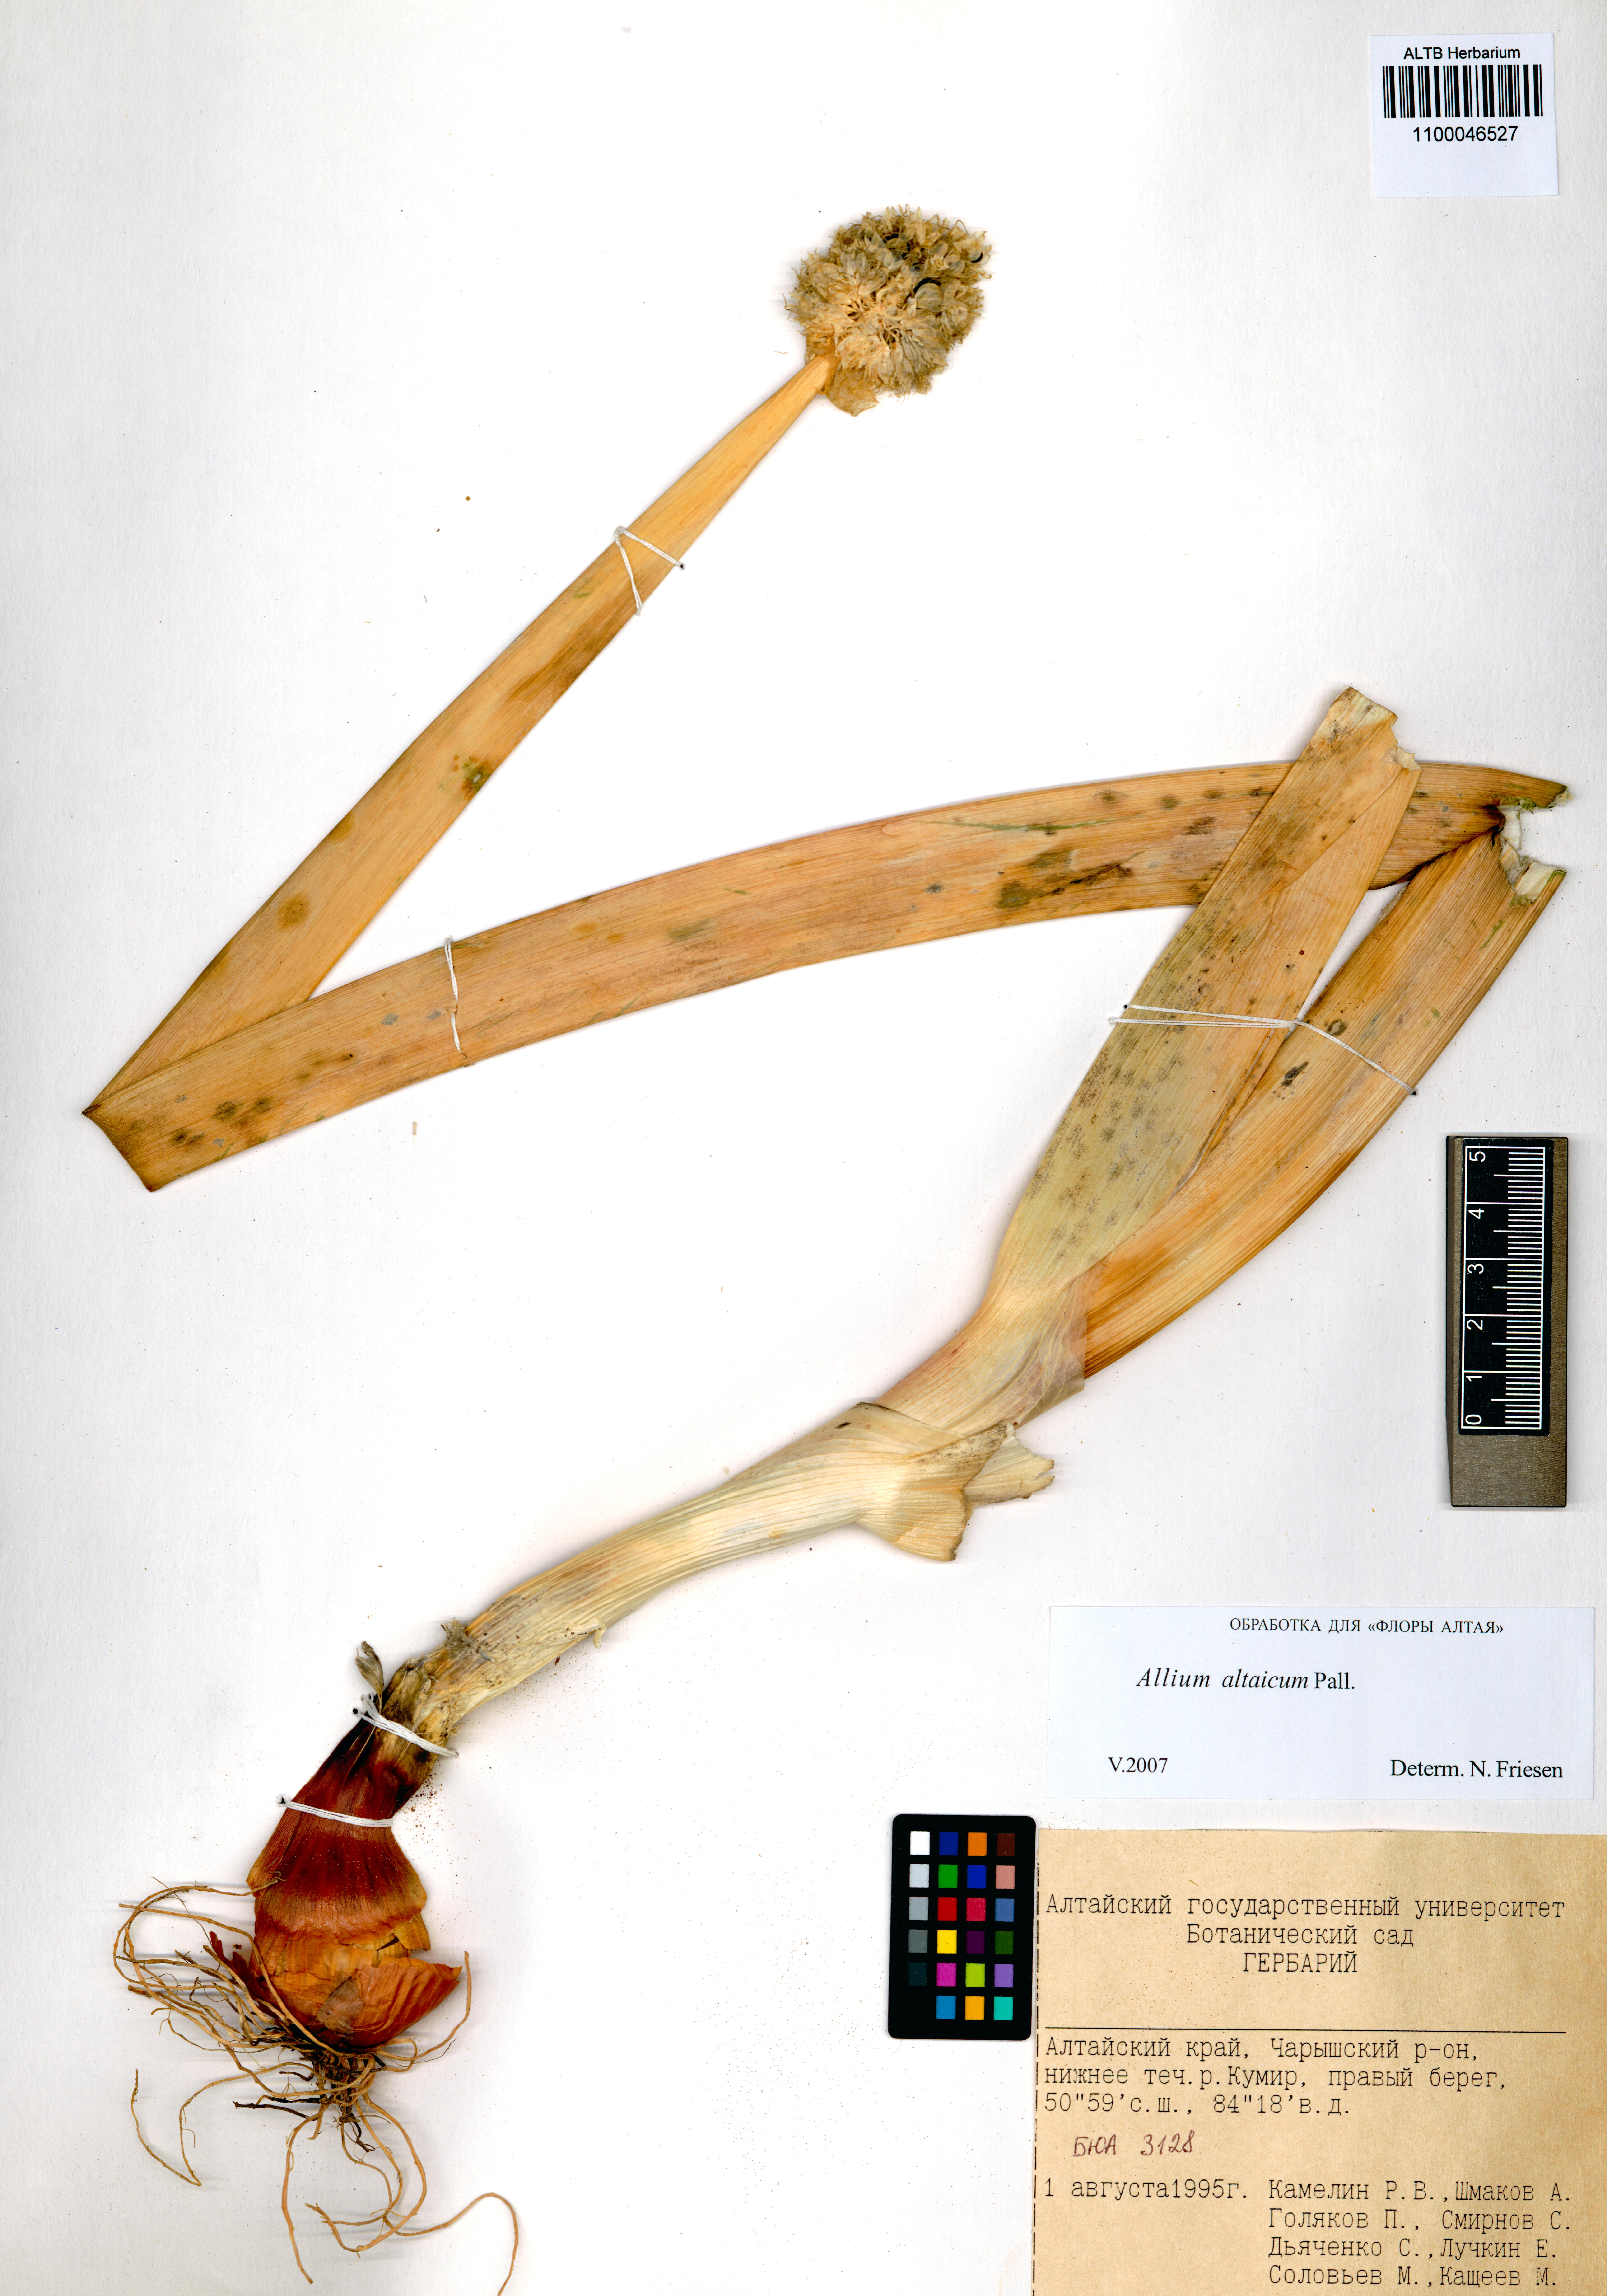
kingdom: Plantae
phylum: Tracheophyta
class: Liliopsida
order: Asparagales
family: Amaryllidaceae
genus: Allium
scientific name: Allium altaicum
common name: Altai onion
